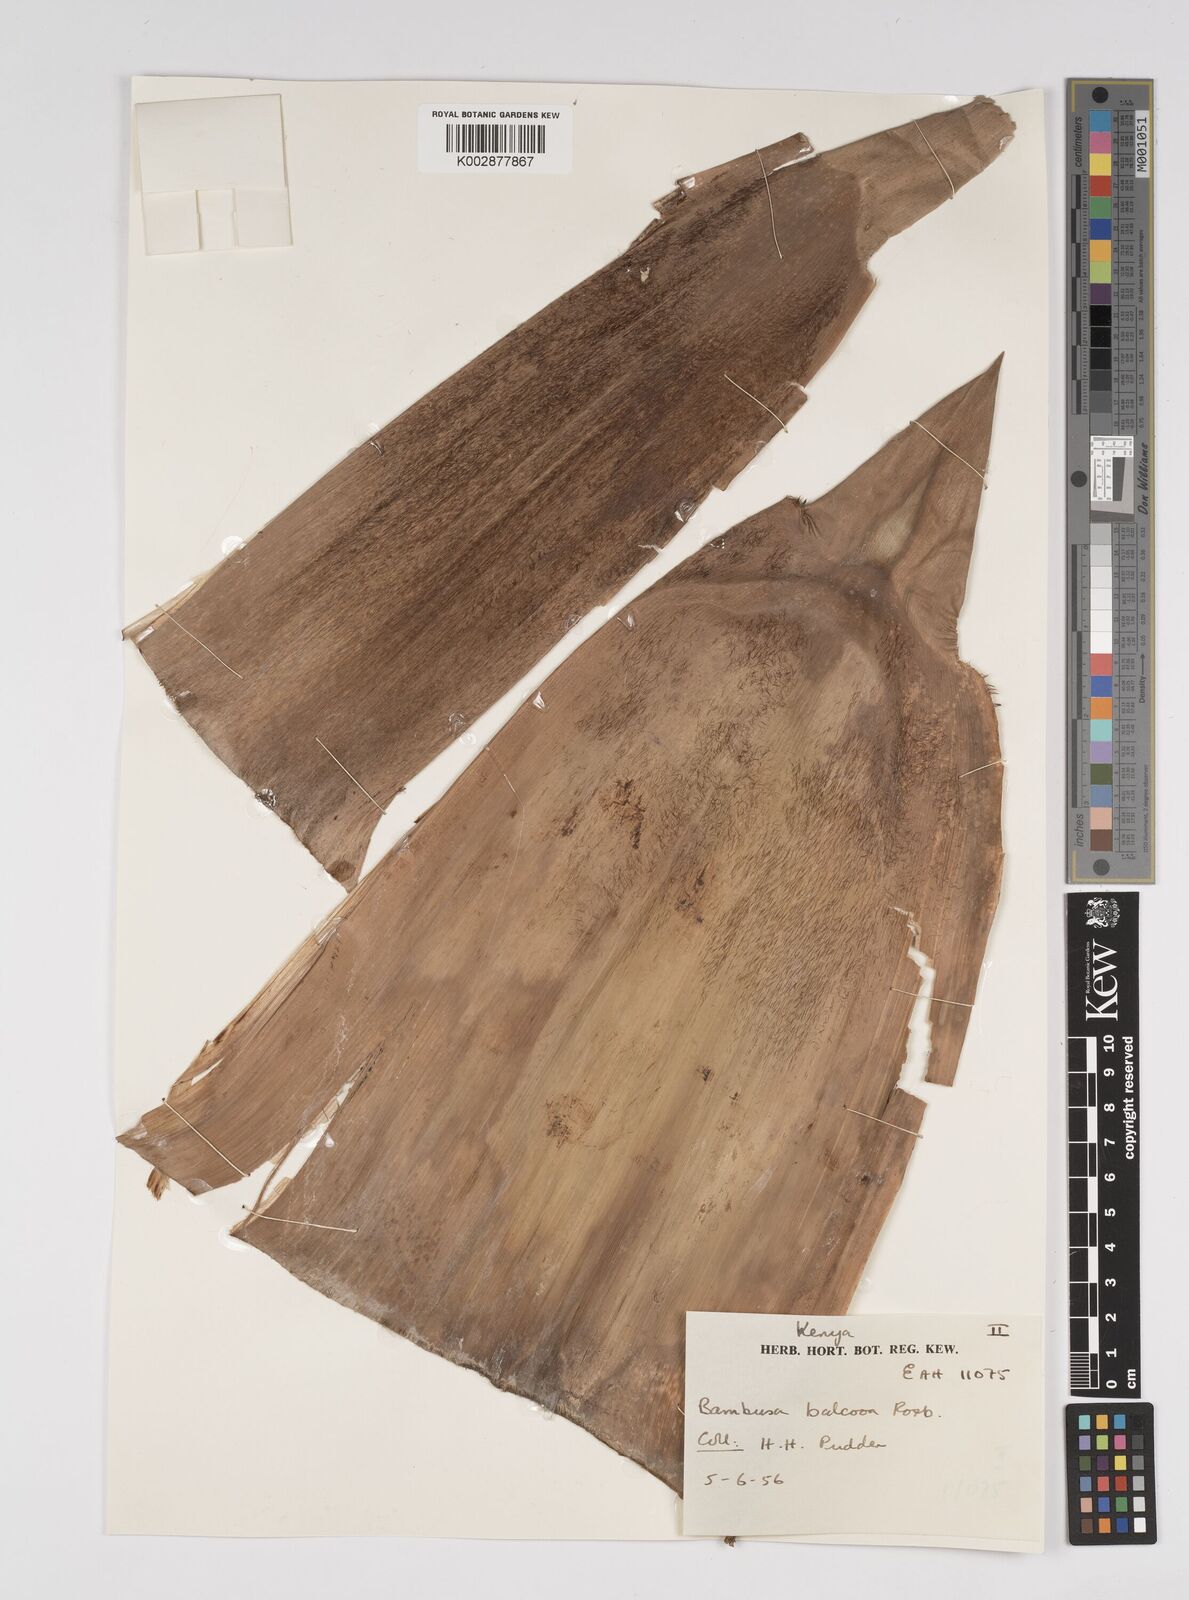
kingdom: Plantae
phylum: Tracheophyta
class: Liliopsida
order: Poales
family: Poaceae
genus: Bambusa
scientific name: Bambusa balcooa
